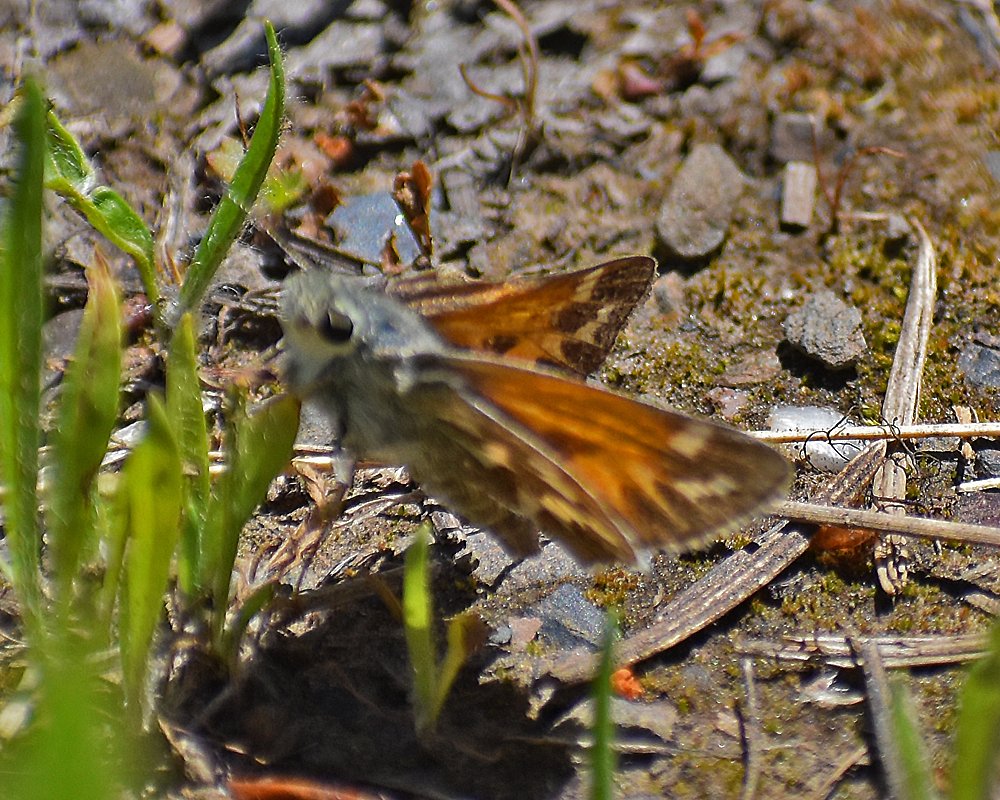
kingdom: Animalia
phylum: Arthropoda
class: Insecta
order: Lepidoptera
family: Hesperiidae
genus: Hesperia
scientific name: Hesperia juba
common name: Juba Skipper
